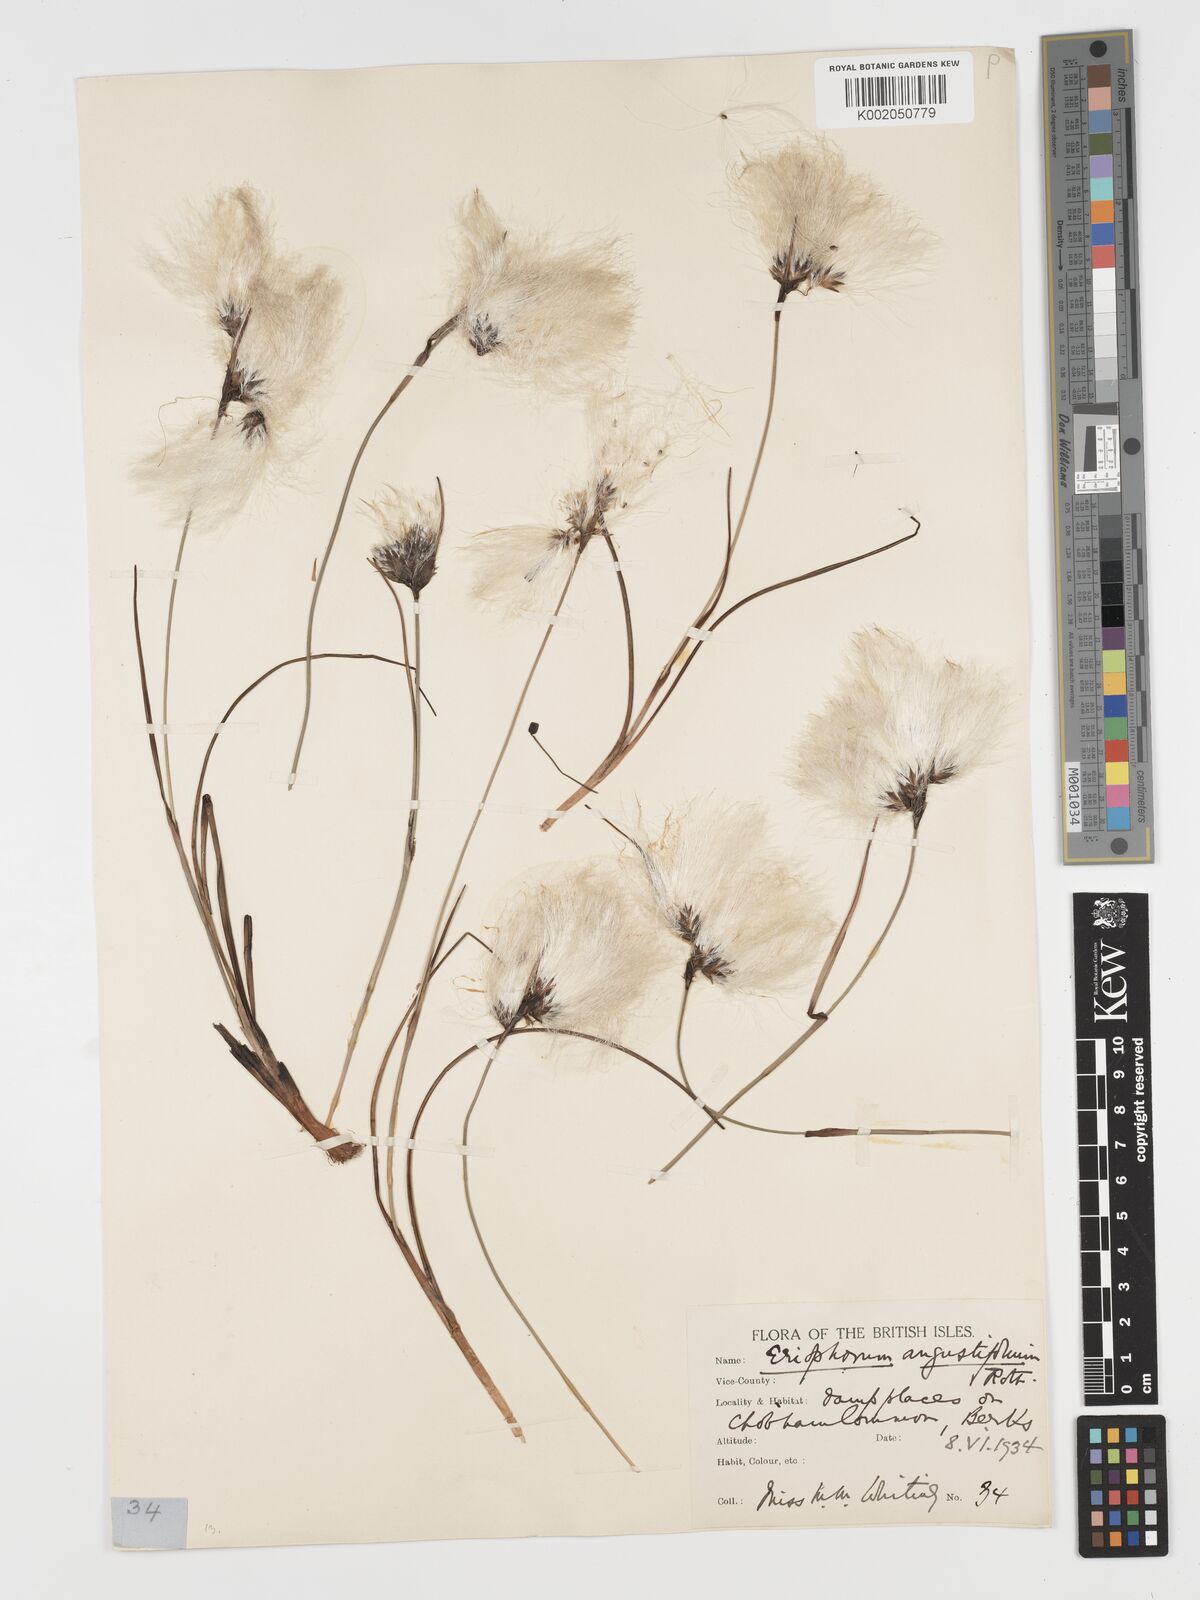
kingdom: Plantae
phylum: Tracheophyta
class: Liliopsida
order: Poales
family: Cyperaceae
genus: Eriophorum
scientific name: Eriophorum angustifolium
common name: Common cottongrass
